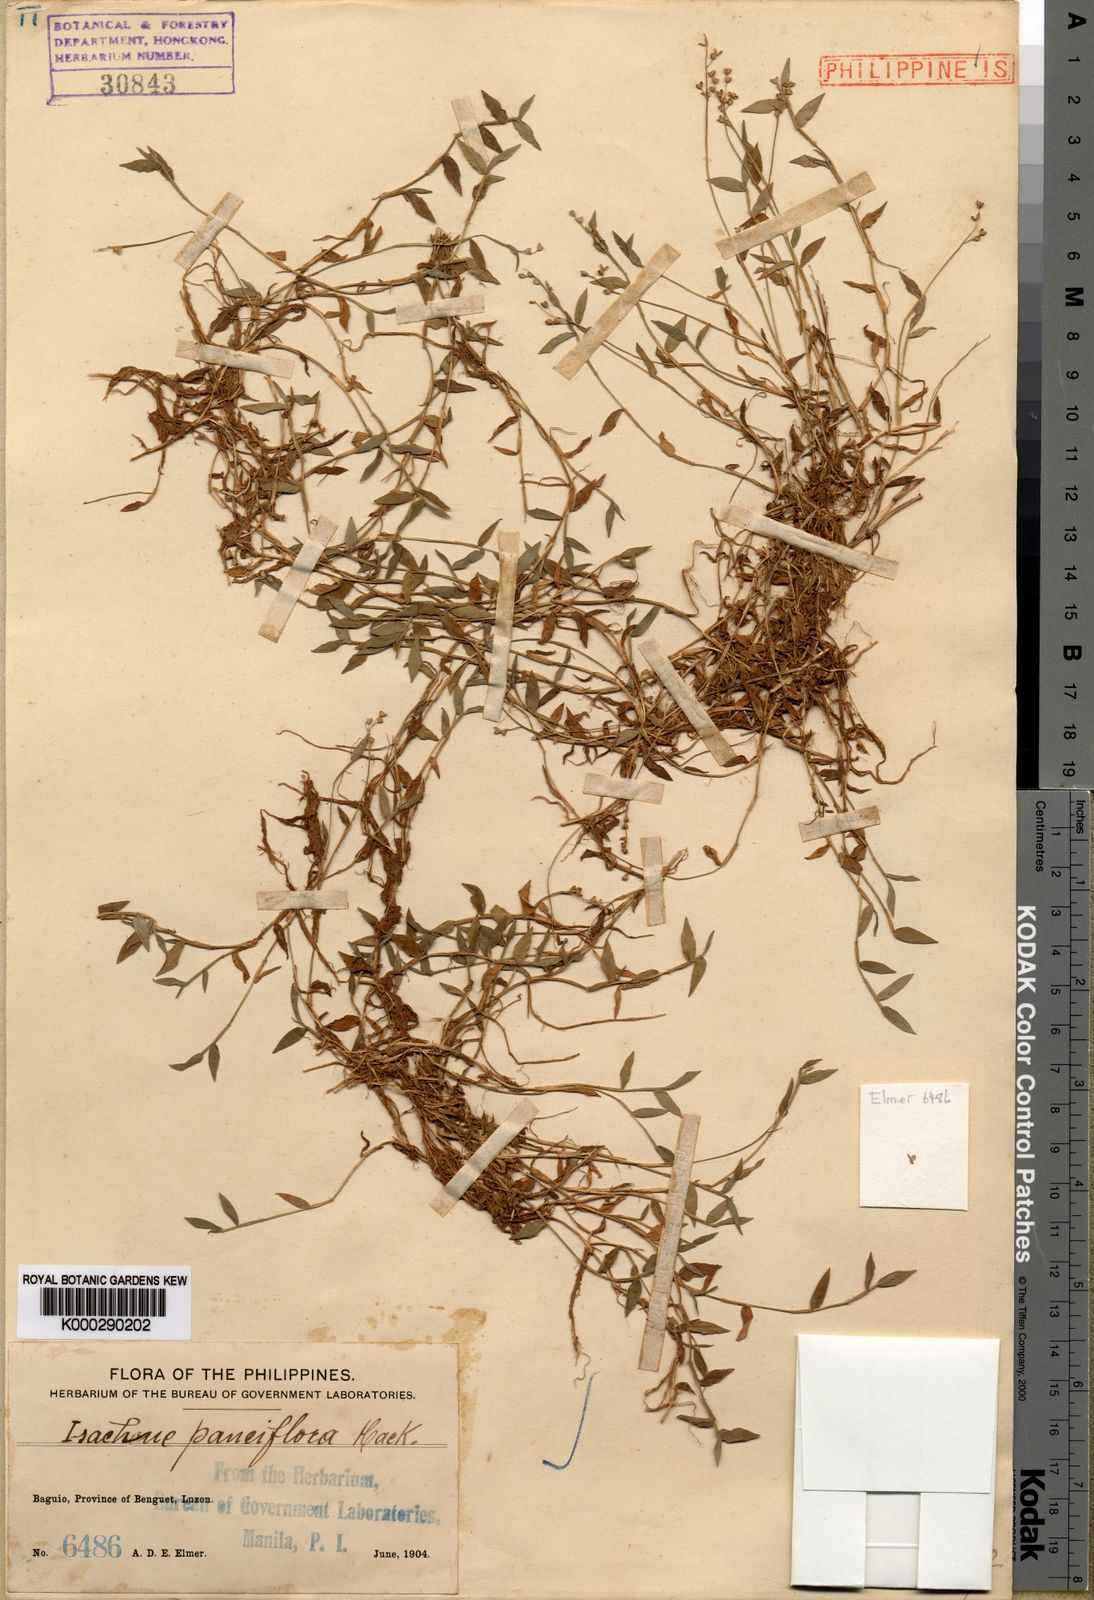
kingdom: Plantae
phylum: Tracheophyta
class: Liliopsida
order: Poales
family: Poaceae
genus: Isachne
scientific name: Isachne myosotis
